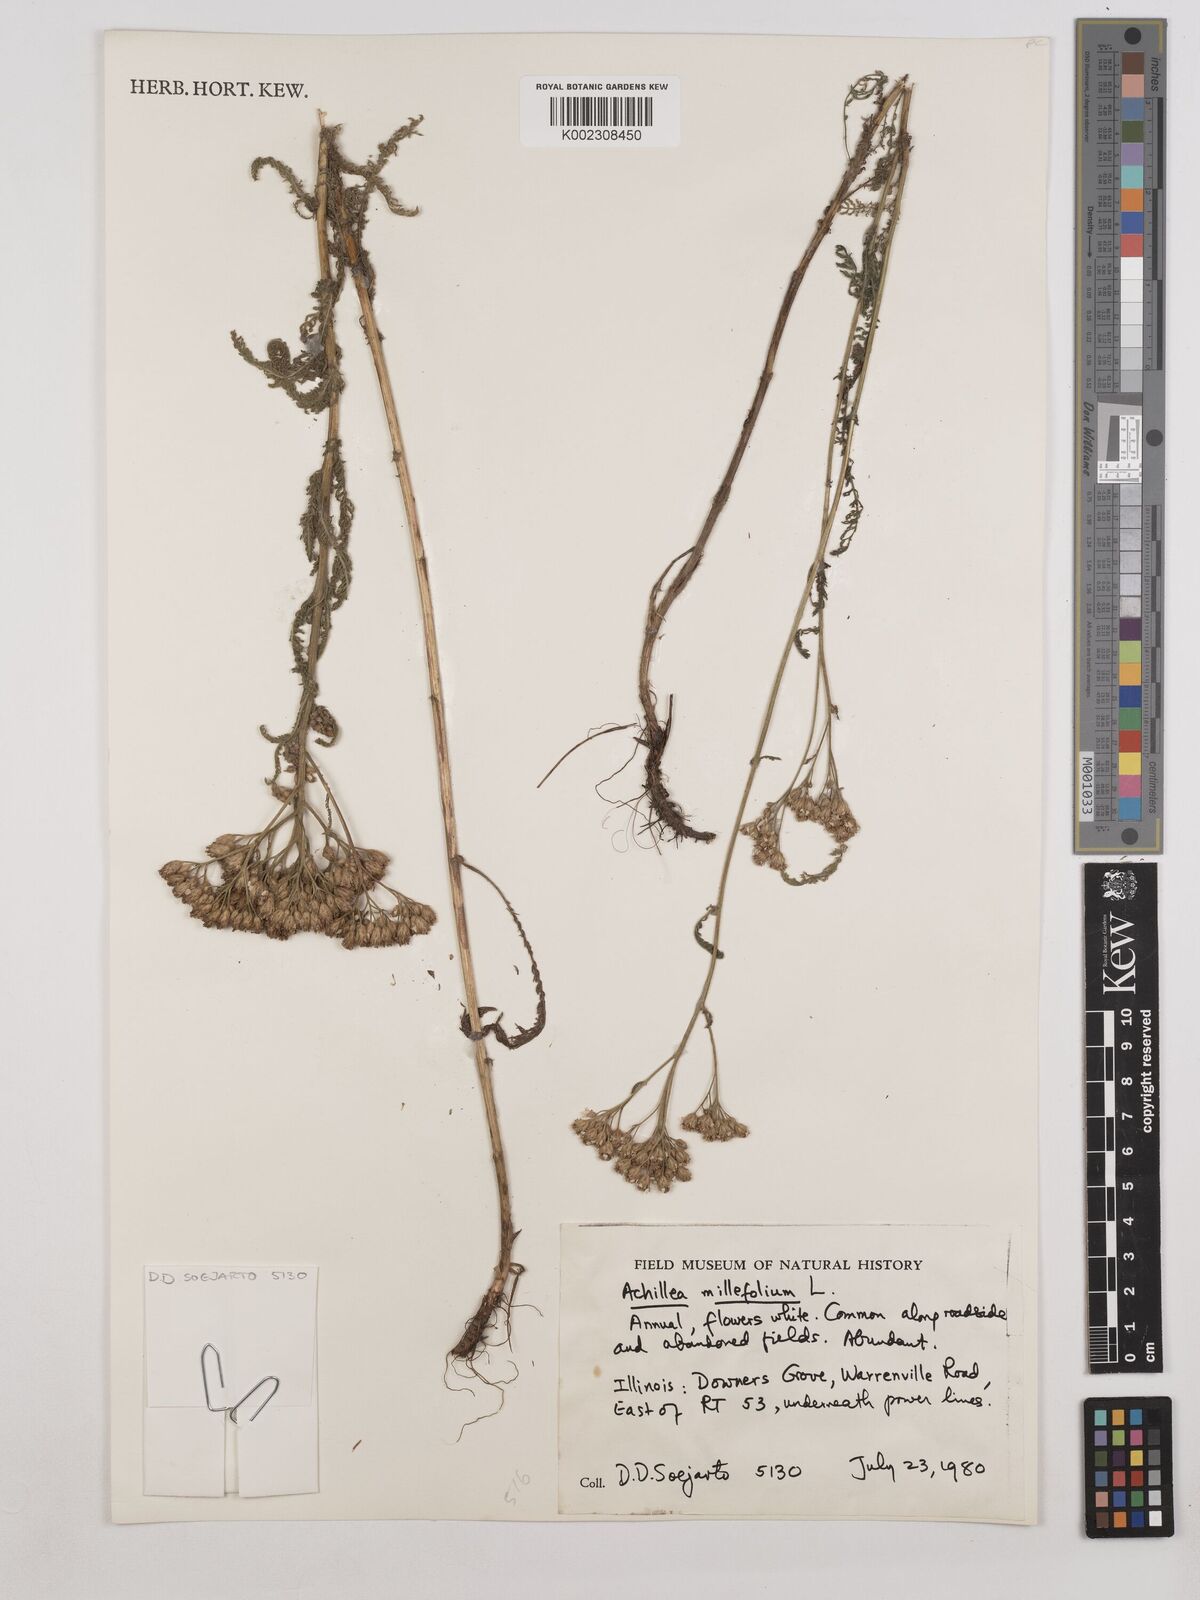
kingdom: Plantae
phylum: Tracheophyta
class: Magnoliopsida
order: Asterales
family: Asteraceae
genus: Achillea
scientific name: Achillea millefolium
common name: Yarrow
